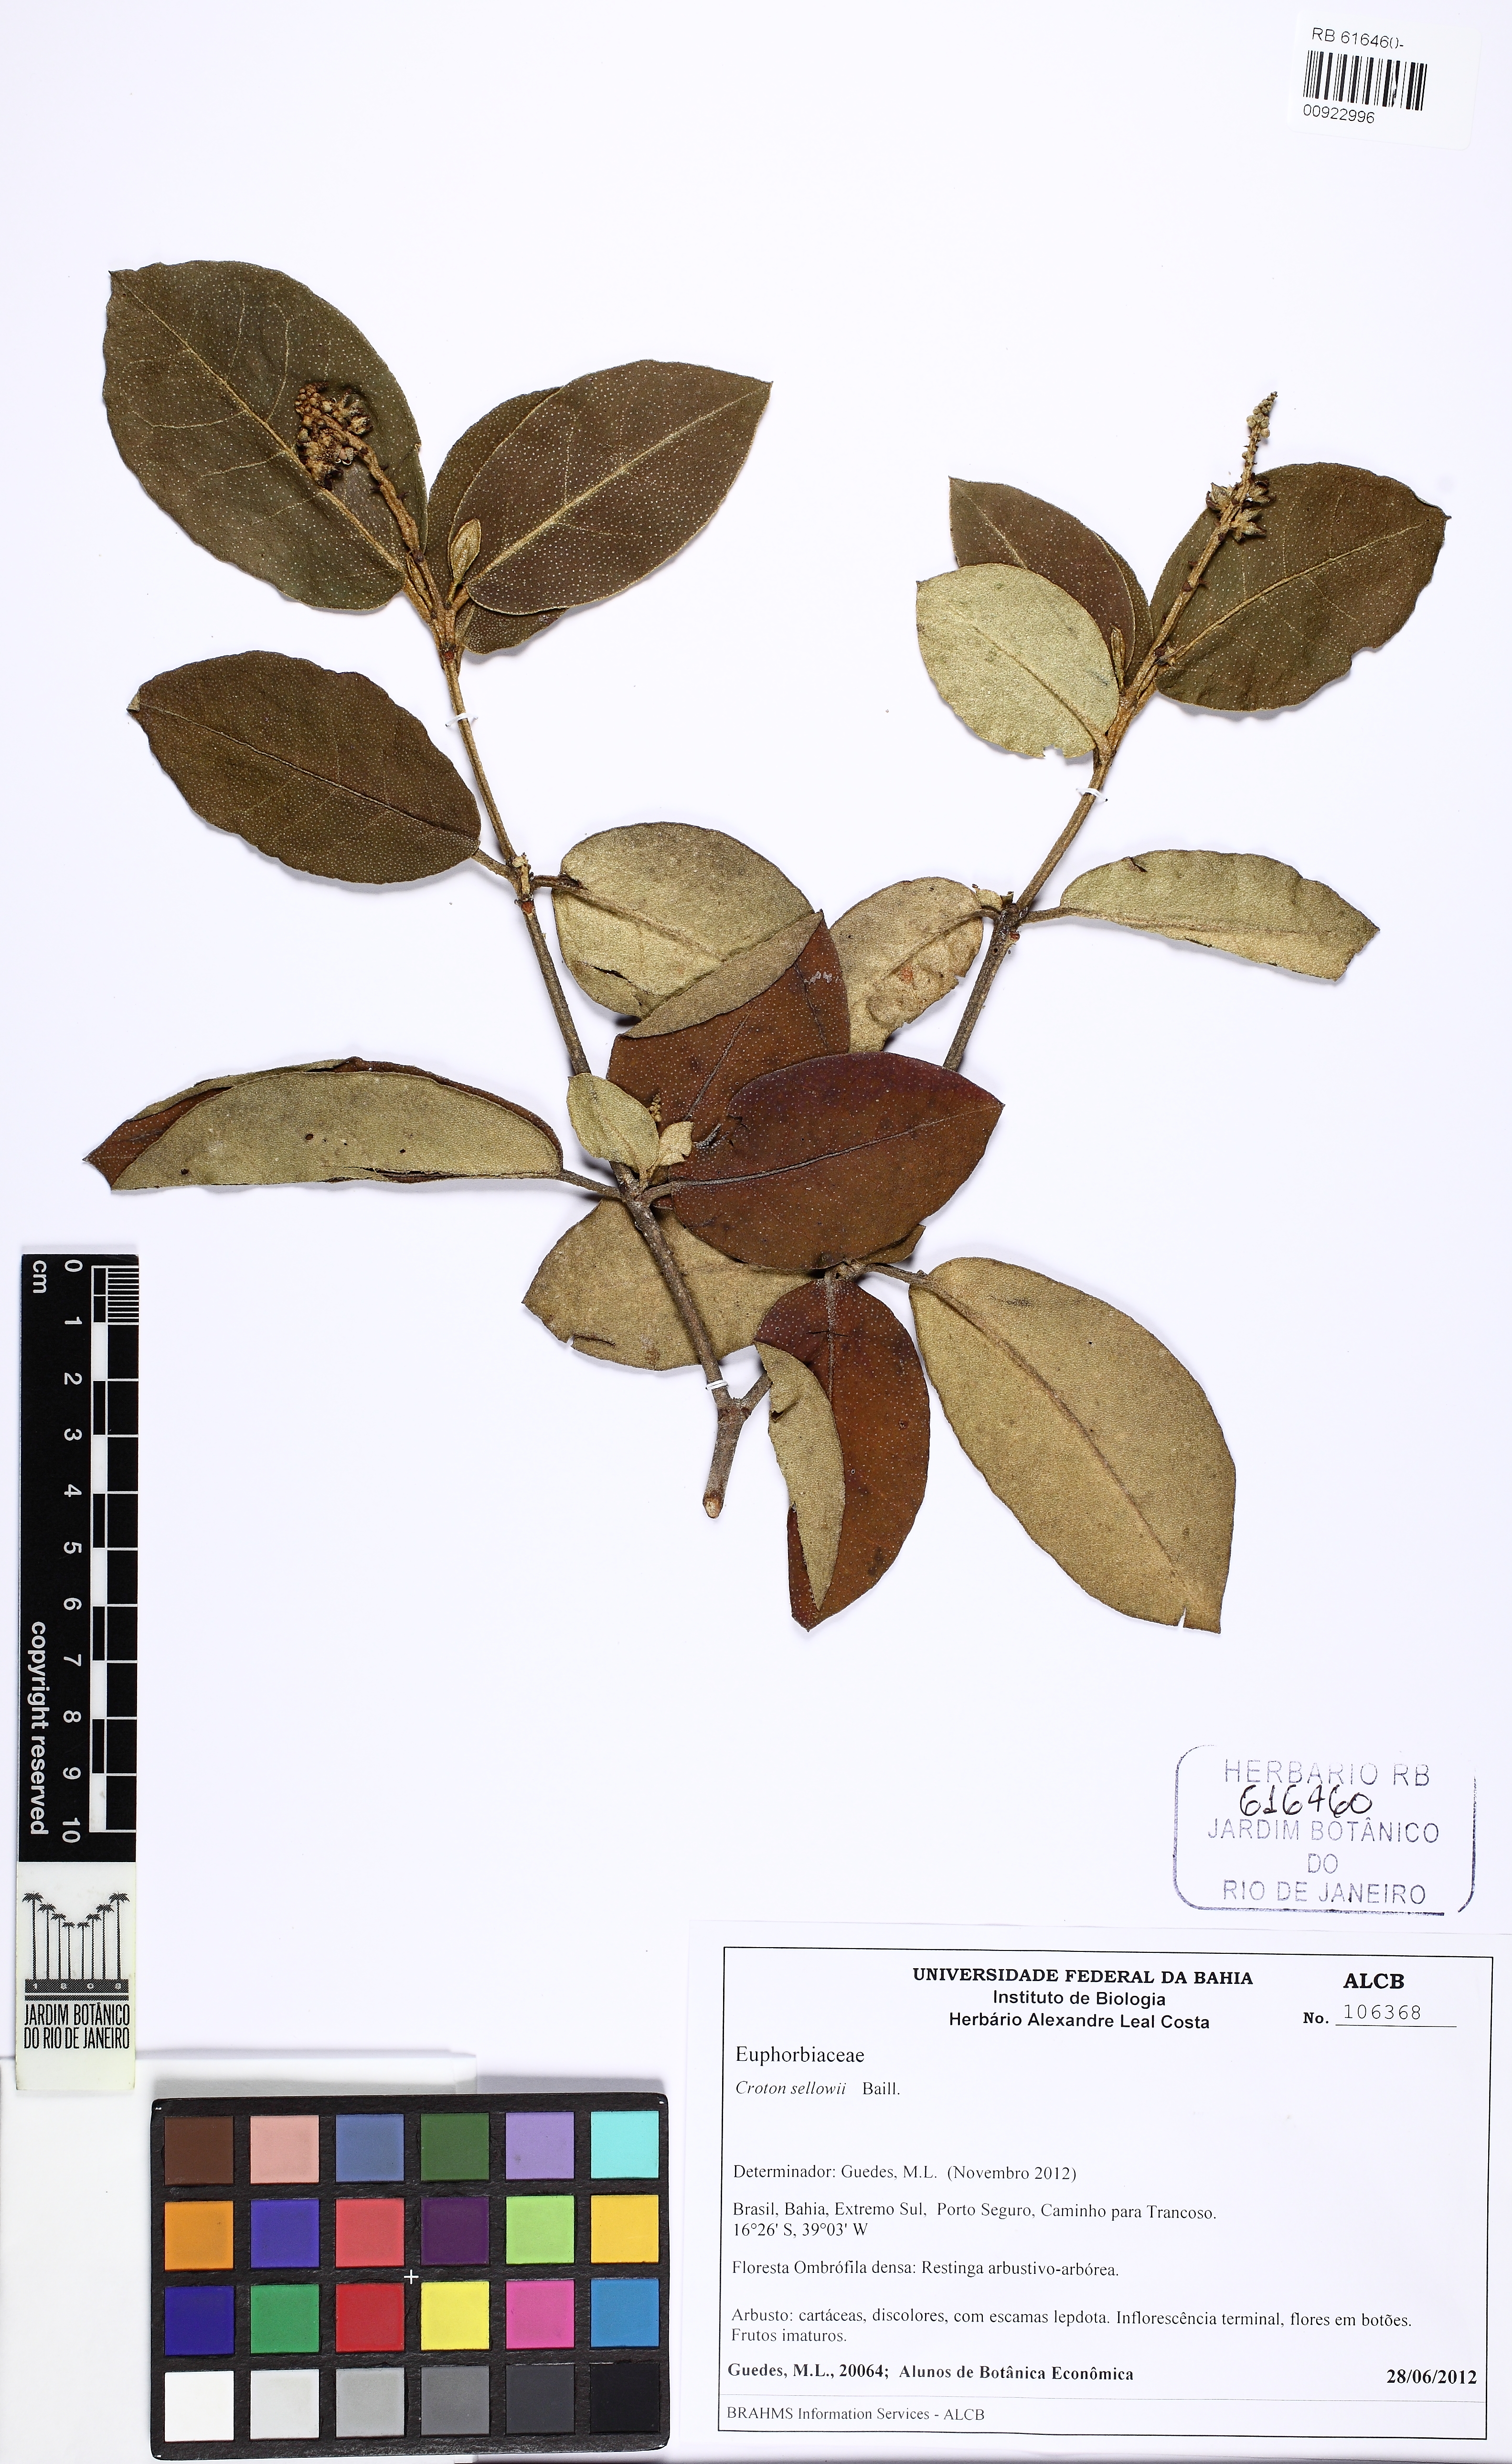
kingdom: Plantae
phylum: Tracheophyta
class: Magnoliopsida
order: Malpighiales
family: Euphorbiaceae
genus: Croton
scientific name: Croton sellowii
